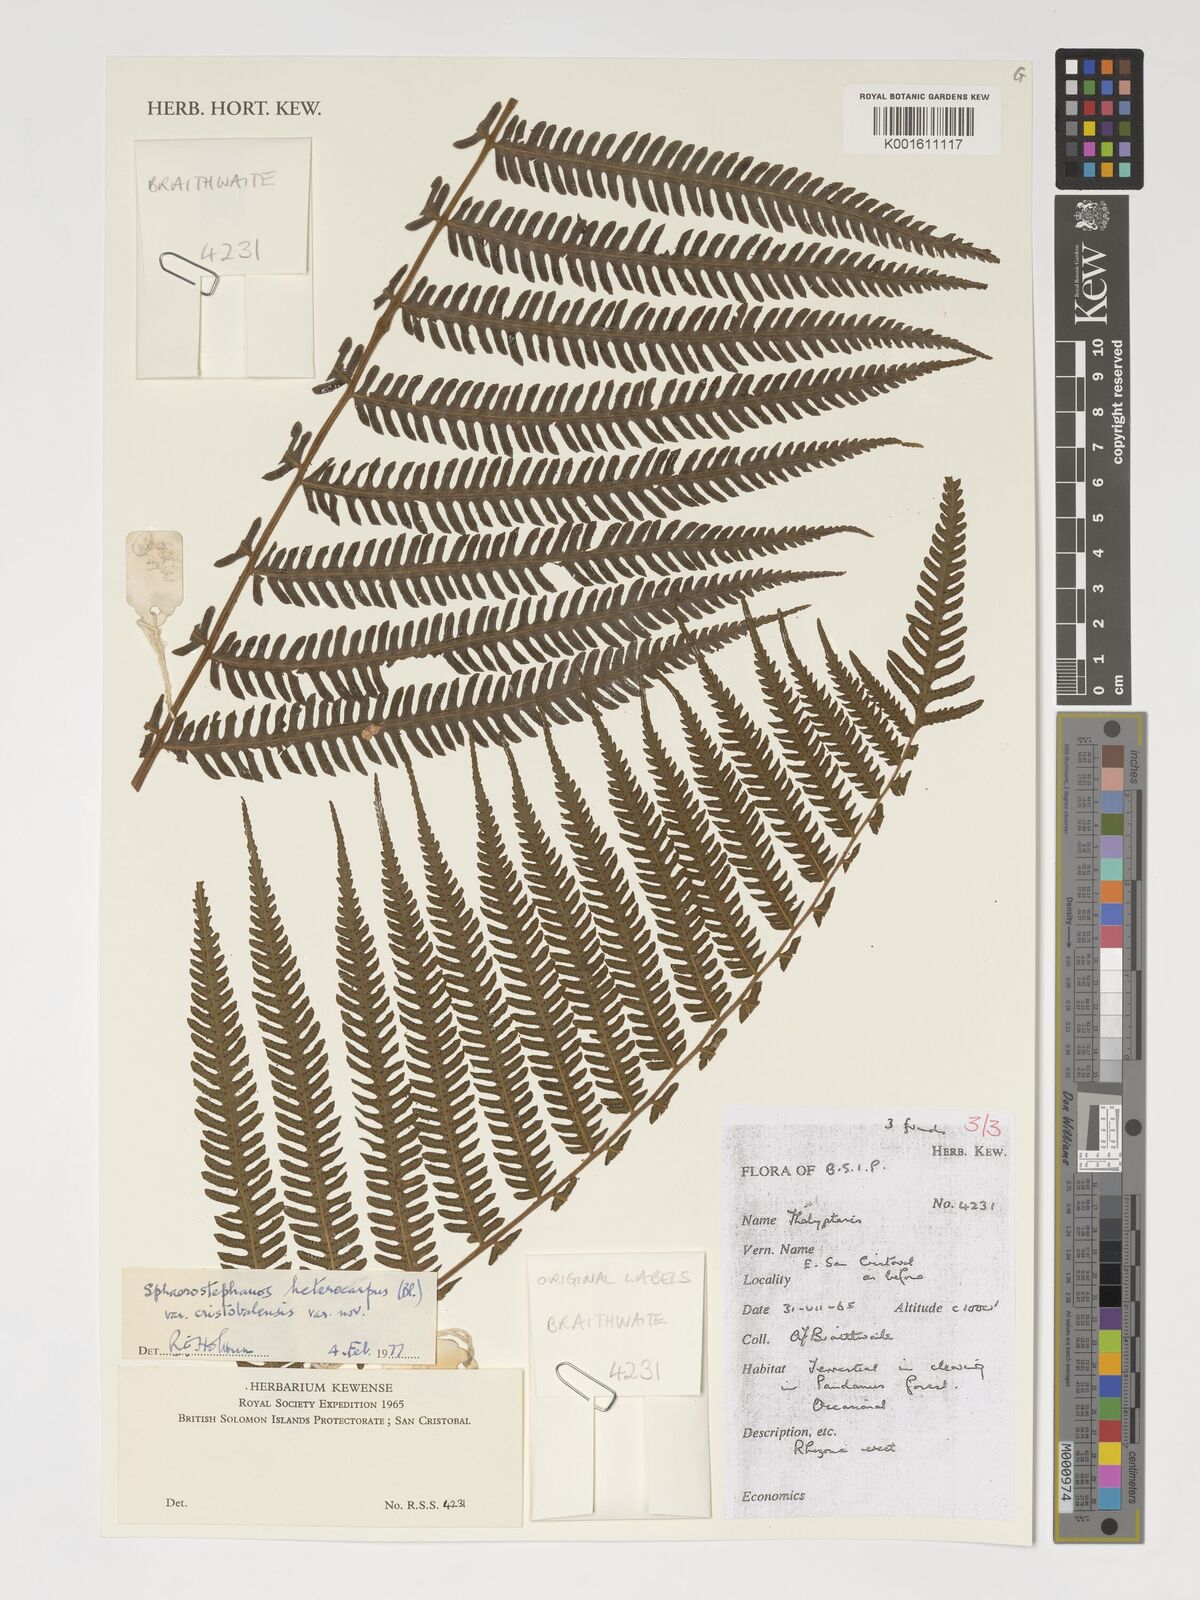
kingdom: Plantae
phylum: Tracheophyta
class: Polypodiopsida
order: Polypodiales
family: Thelypteridaceae
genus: Thelypteris
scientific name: Thelypteris
